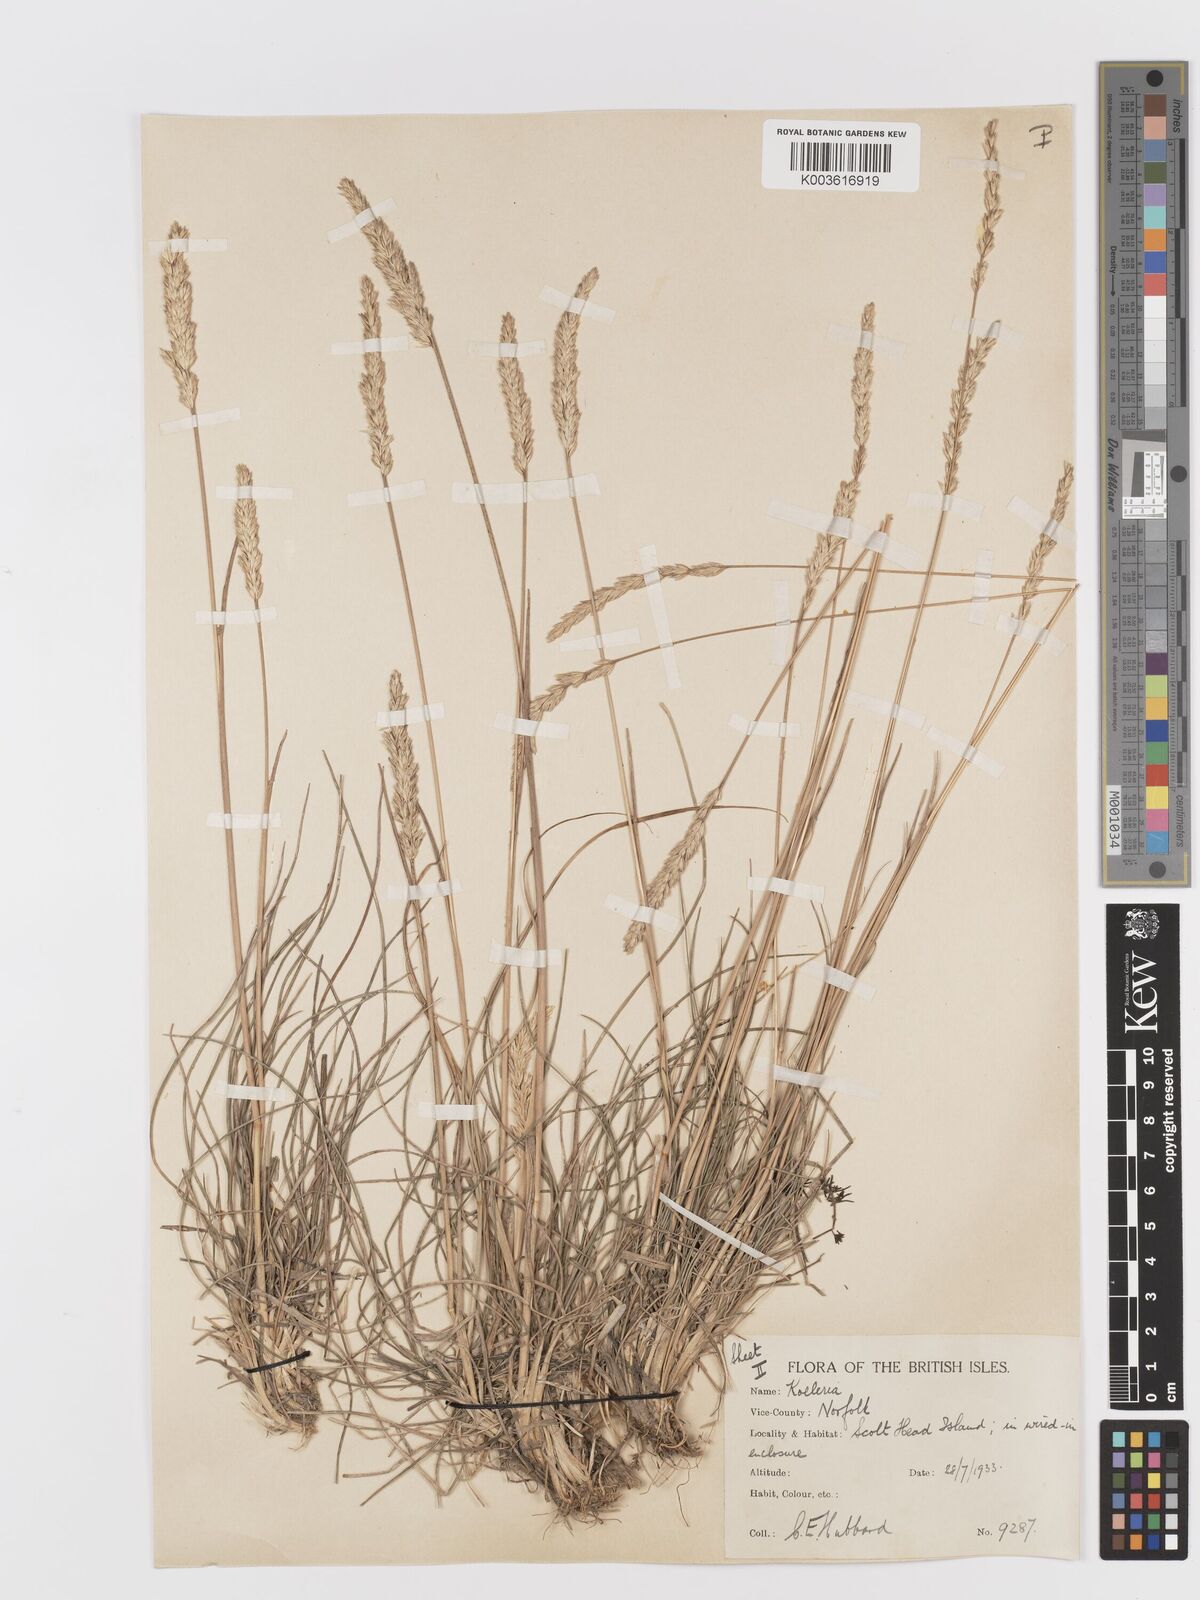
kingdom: Plantae
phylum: Tracheophyta
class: Liliopsida
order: Poales
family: Poaceae
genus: Koeleria
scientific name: Koeleria macrantha
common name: Crested hair-grass
